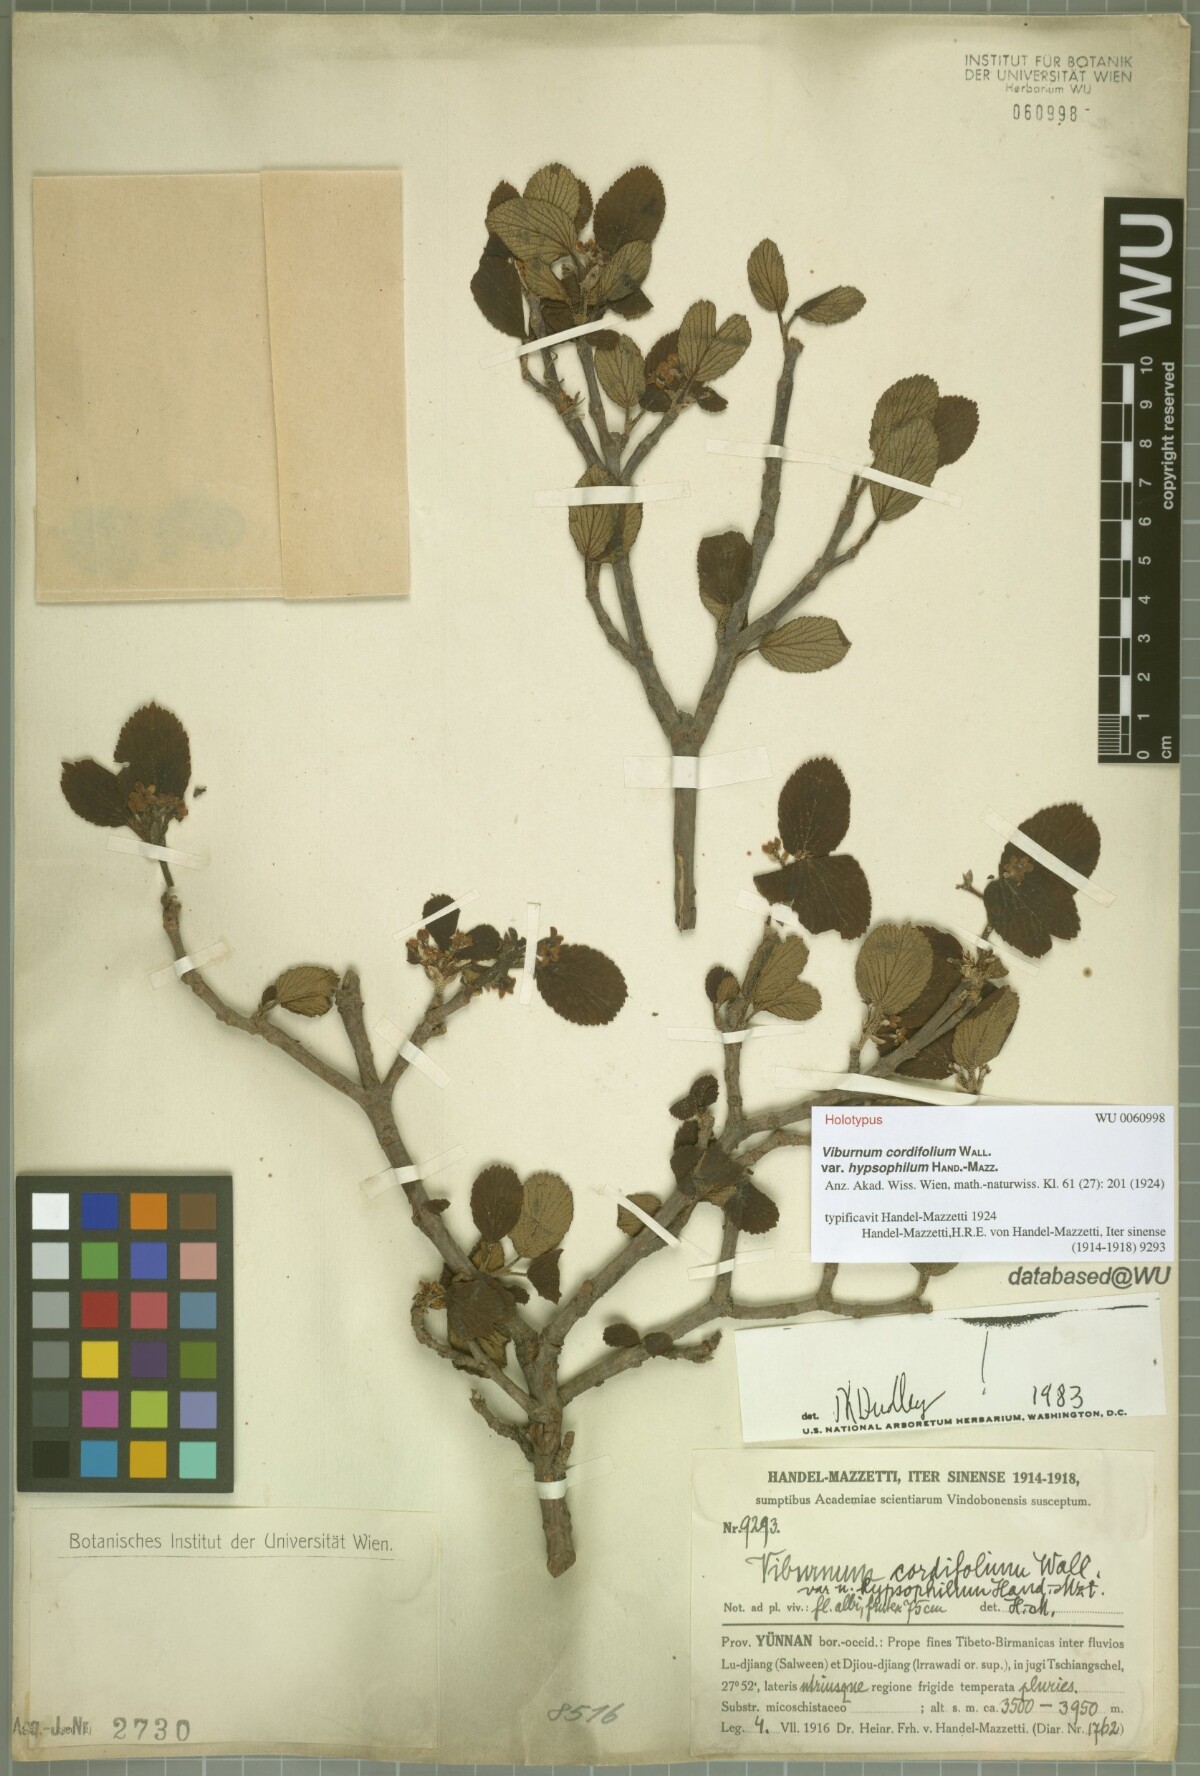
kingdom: Plantae
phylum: Tracheophyta
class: Magnoliopsida
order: Dipsacales
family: Viburnaceae
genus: Viburnum
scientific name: Viburnum nervosum
